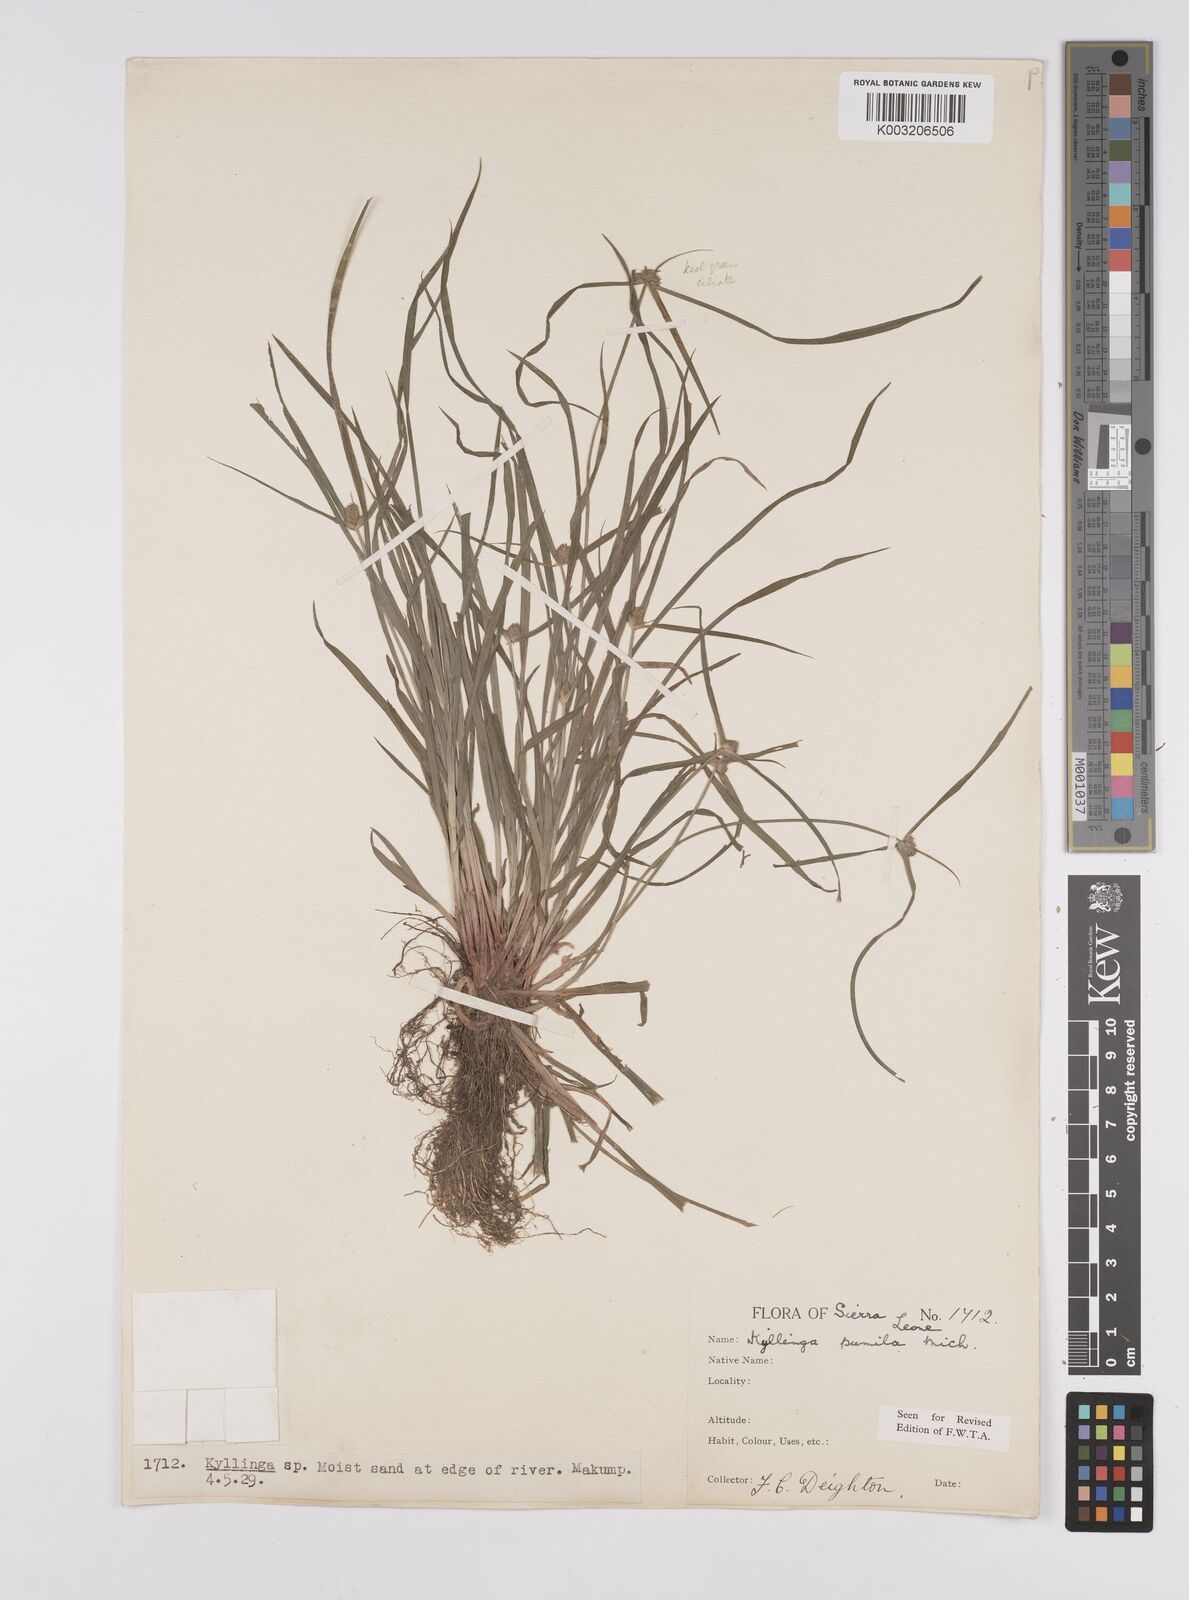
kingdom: Plantae
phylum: Tracheophyta
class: Liliopsida
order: Poales
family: Cyperaceae
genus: Cyperus
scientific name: Cyperus
